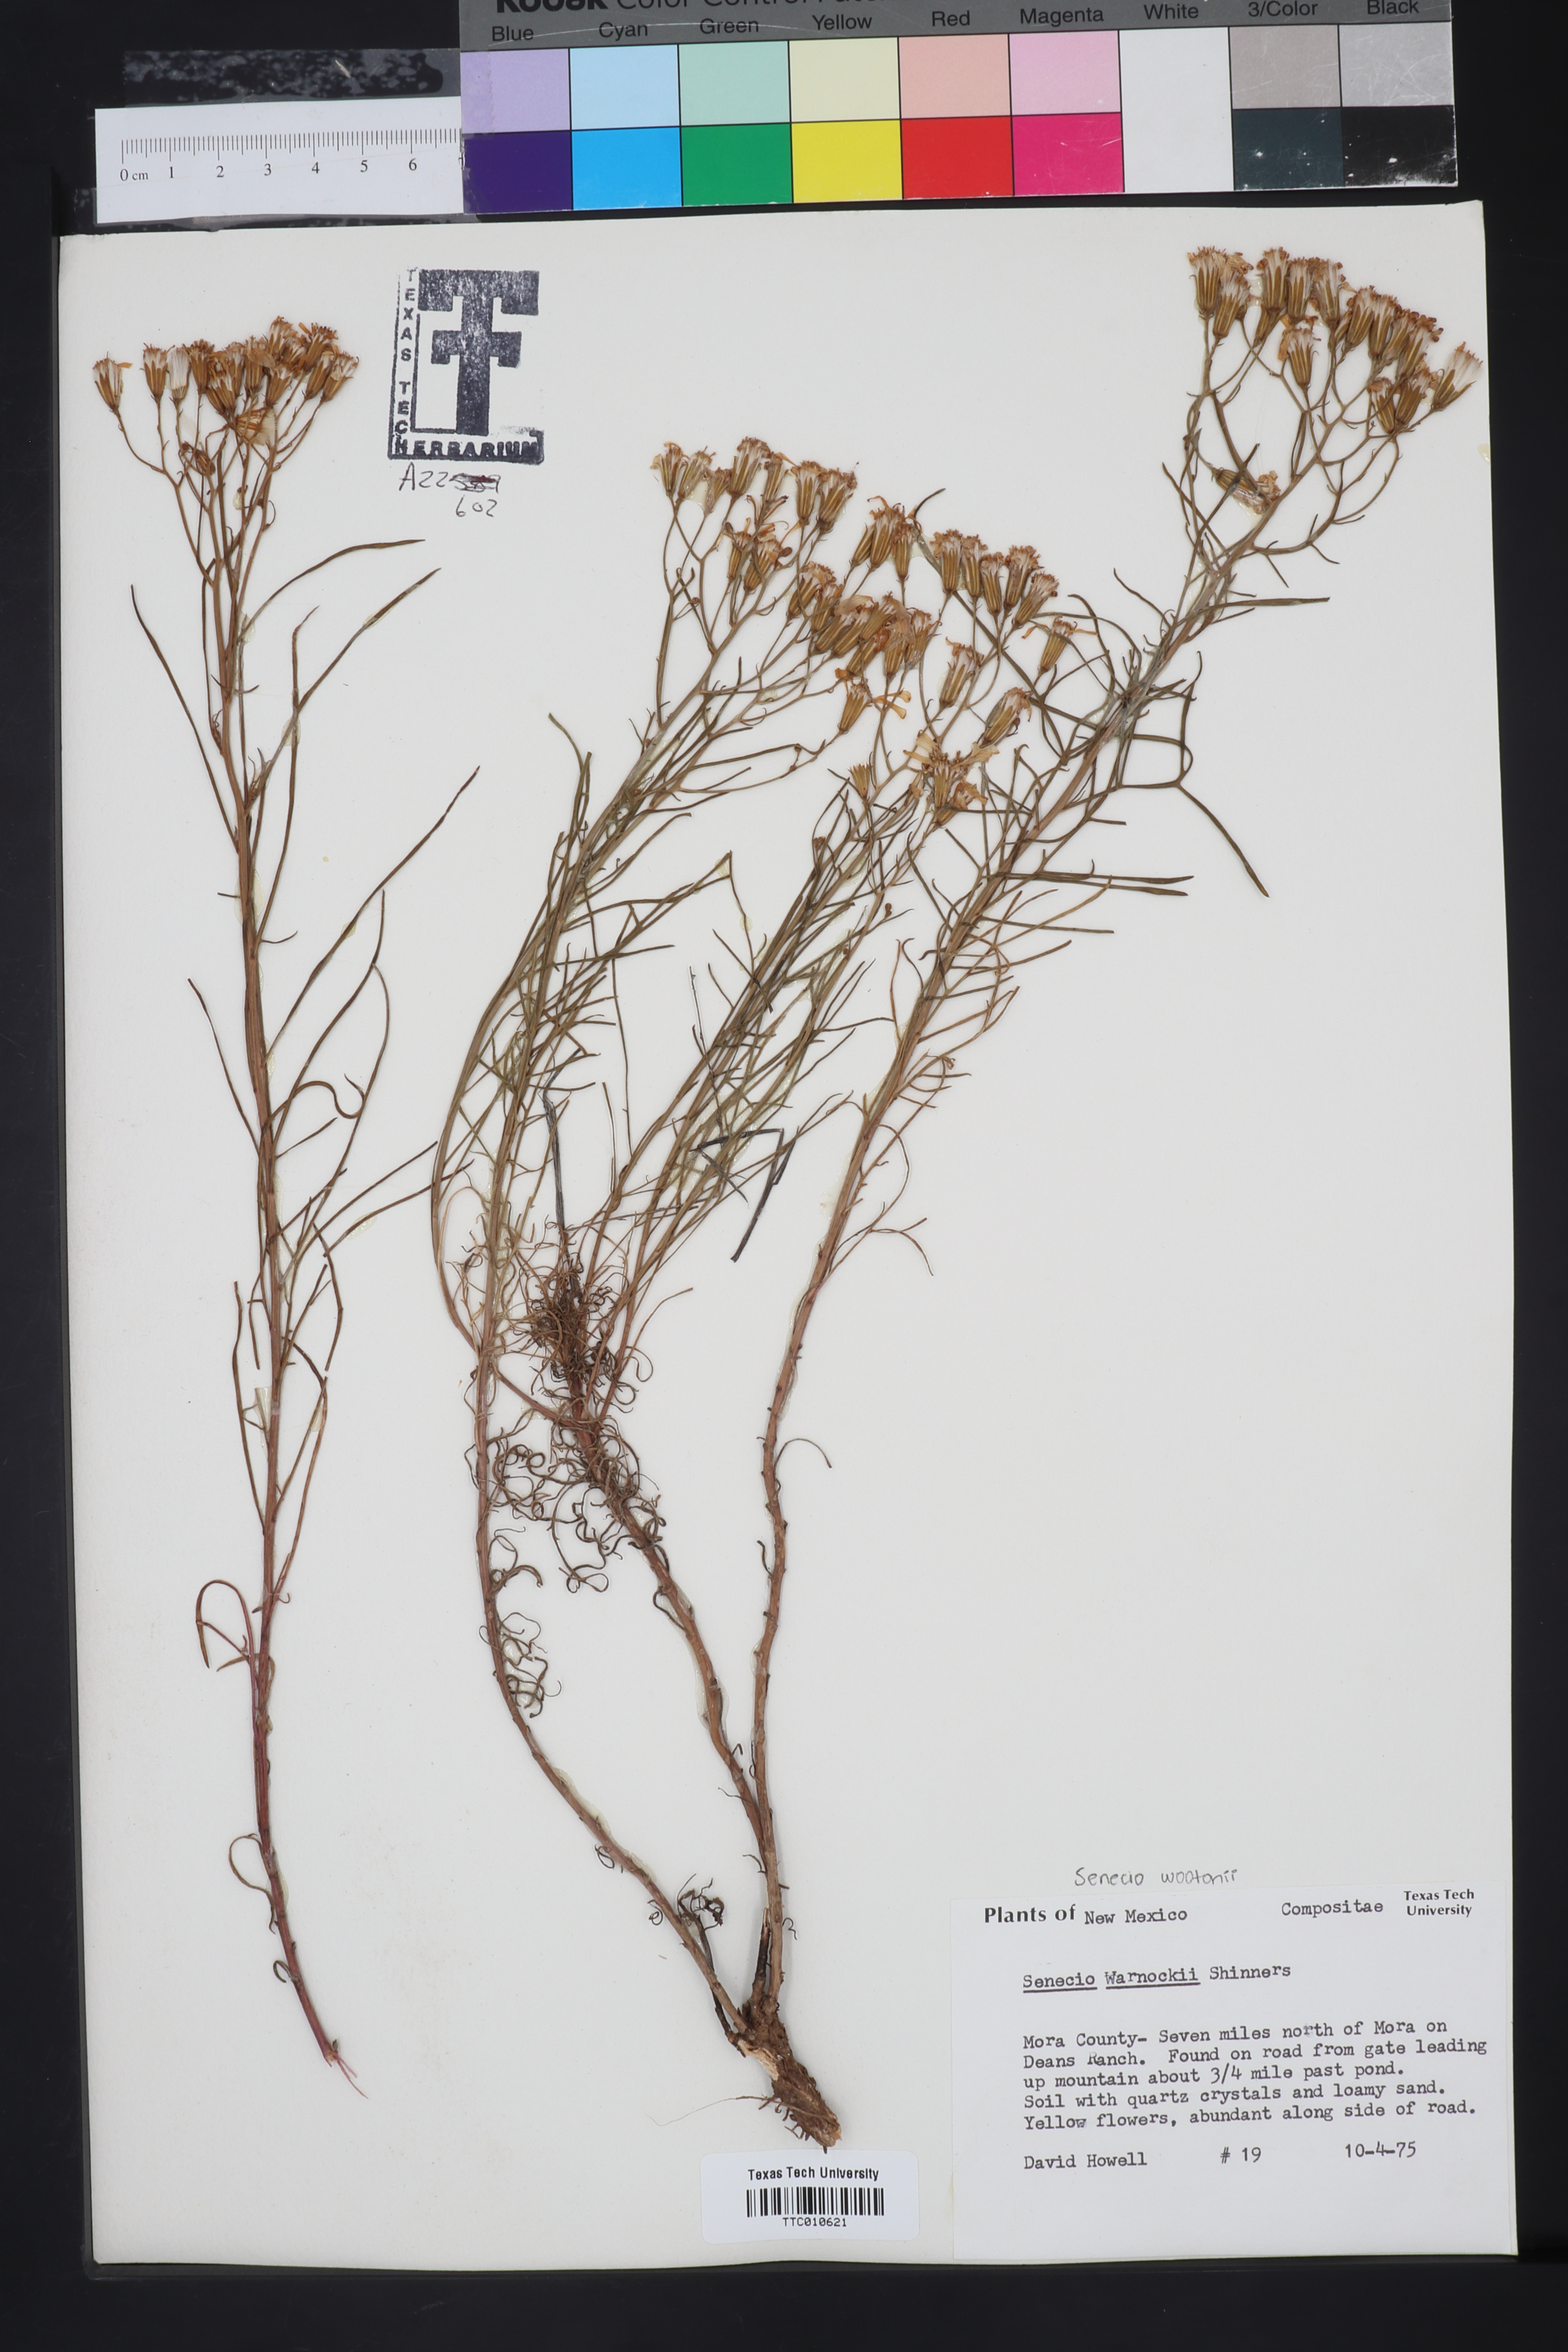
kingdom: Plantae
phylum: Tracheophyta
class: Magnoliopsida
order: Asterales
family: Asteraceae
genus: Senecio
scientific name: Senecio warnockii
